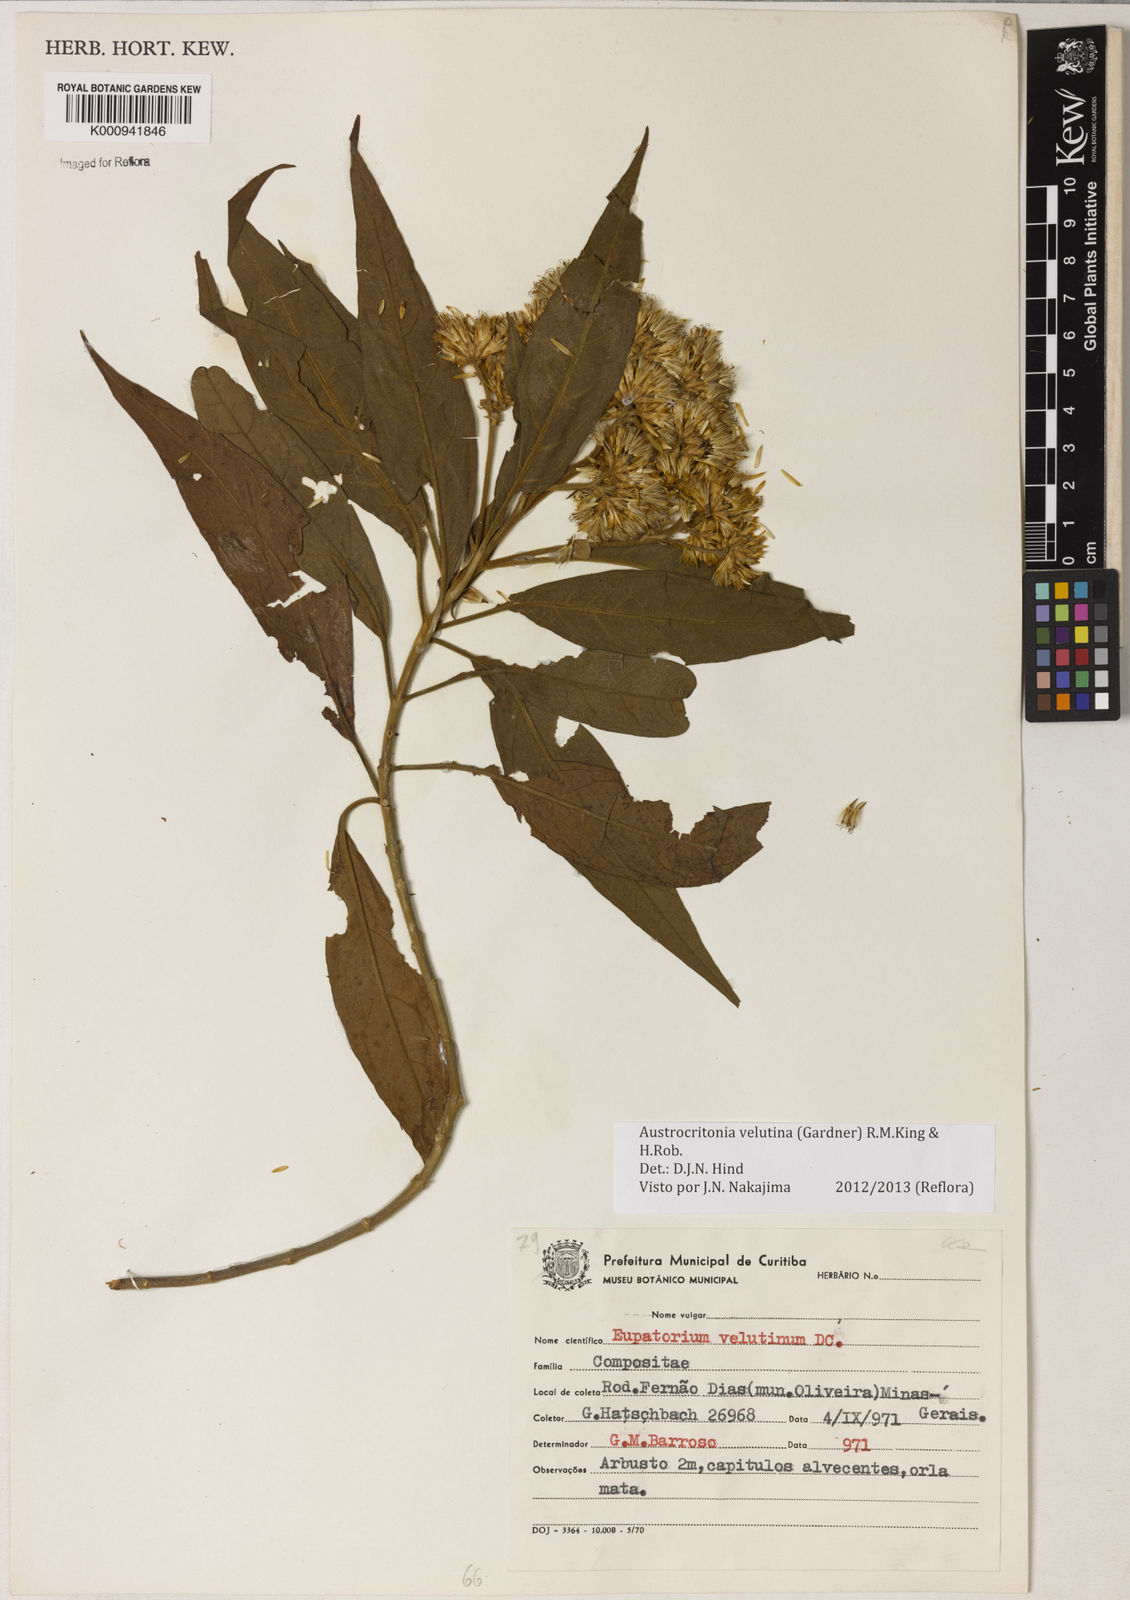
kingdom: Plantae
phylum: Tracheophyta
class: Magnoliopsida
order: Asterales
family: Asteraceae
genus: Austrocritonia
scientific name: Austrocritonia velutina
